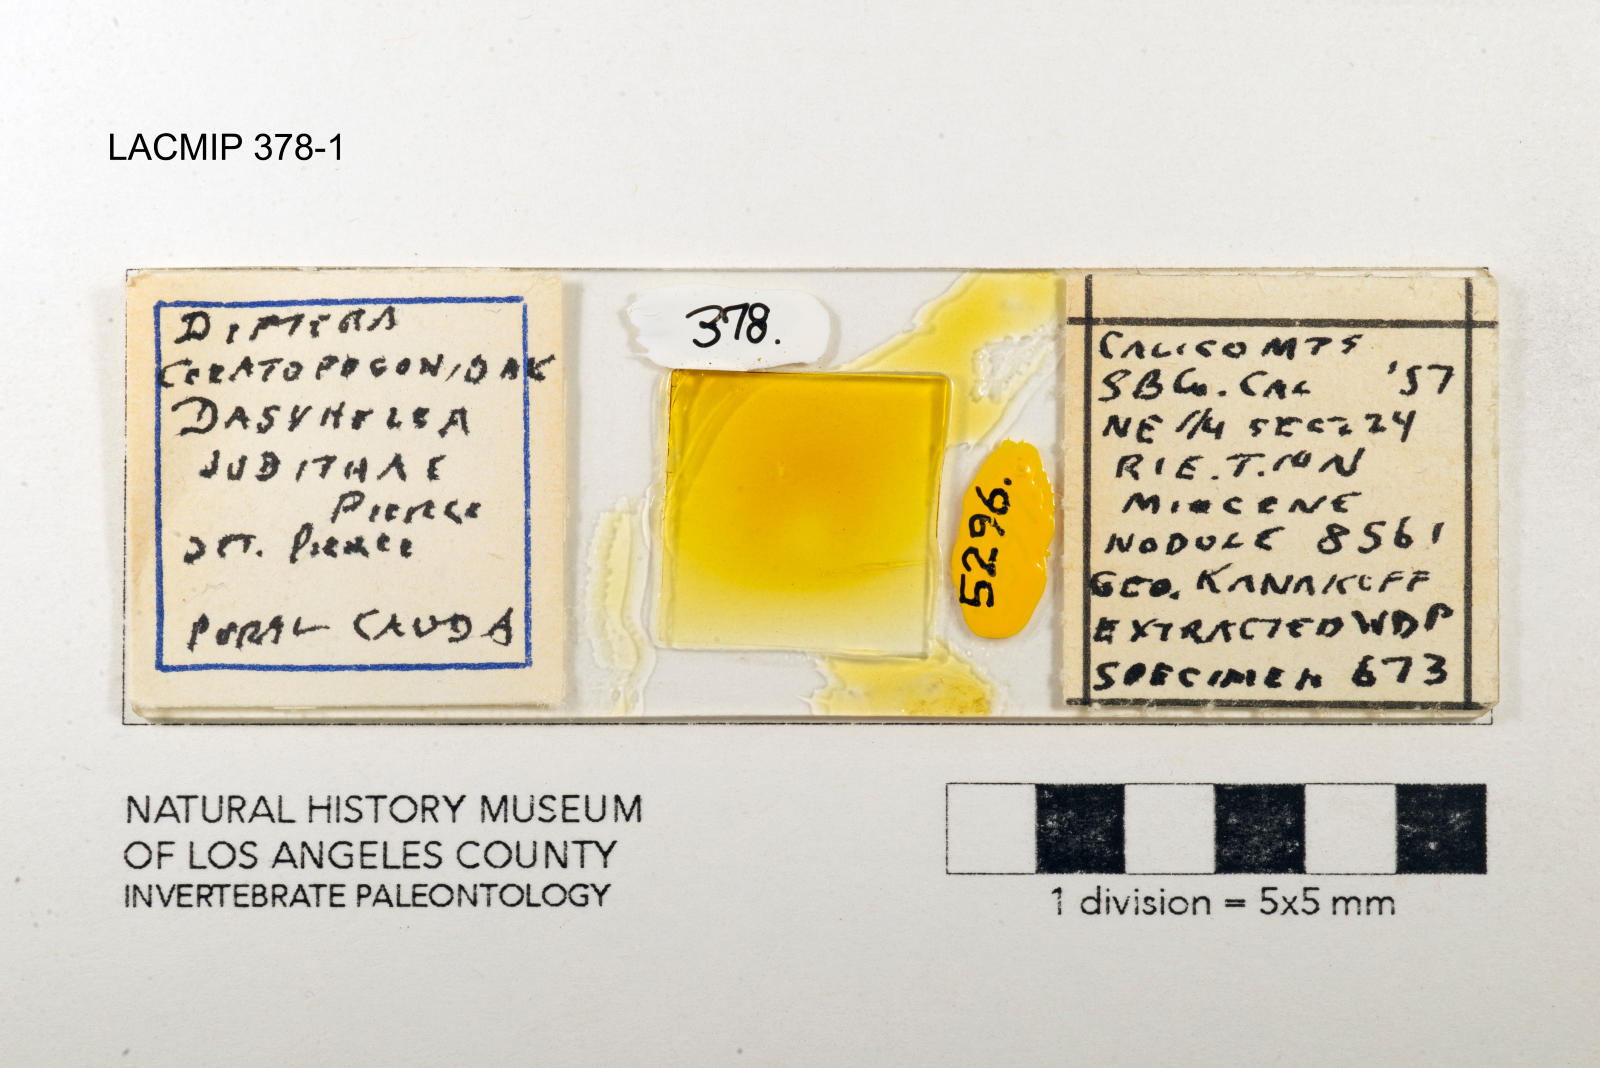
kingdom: Animalia
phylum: Arthropoda
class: Insecta
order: Diptera
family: Ceratopogonidae
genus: Dasyhelea
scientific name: Dasyhelea judithae
